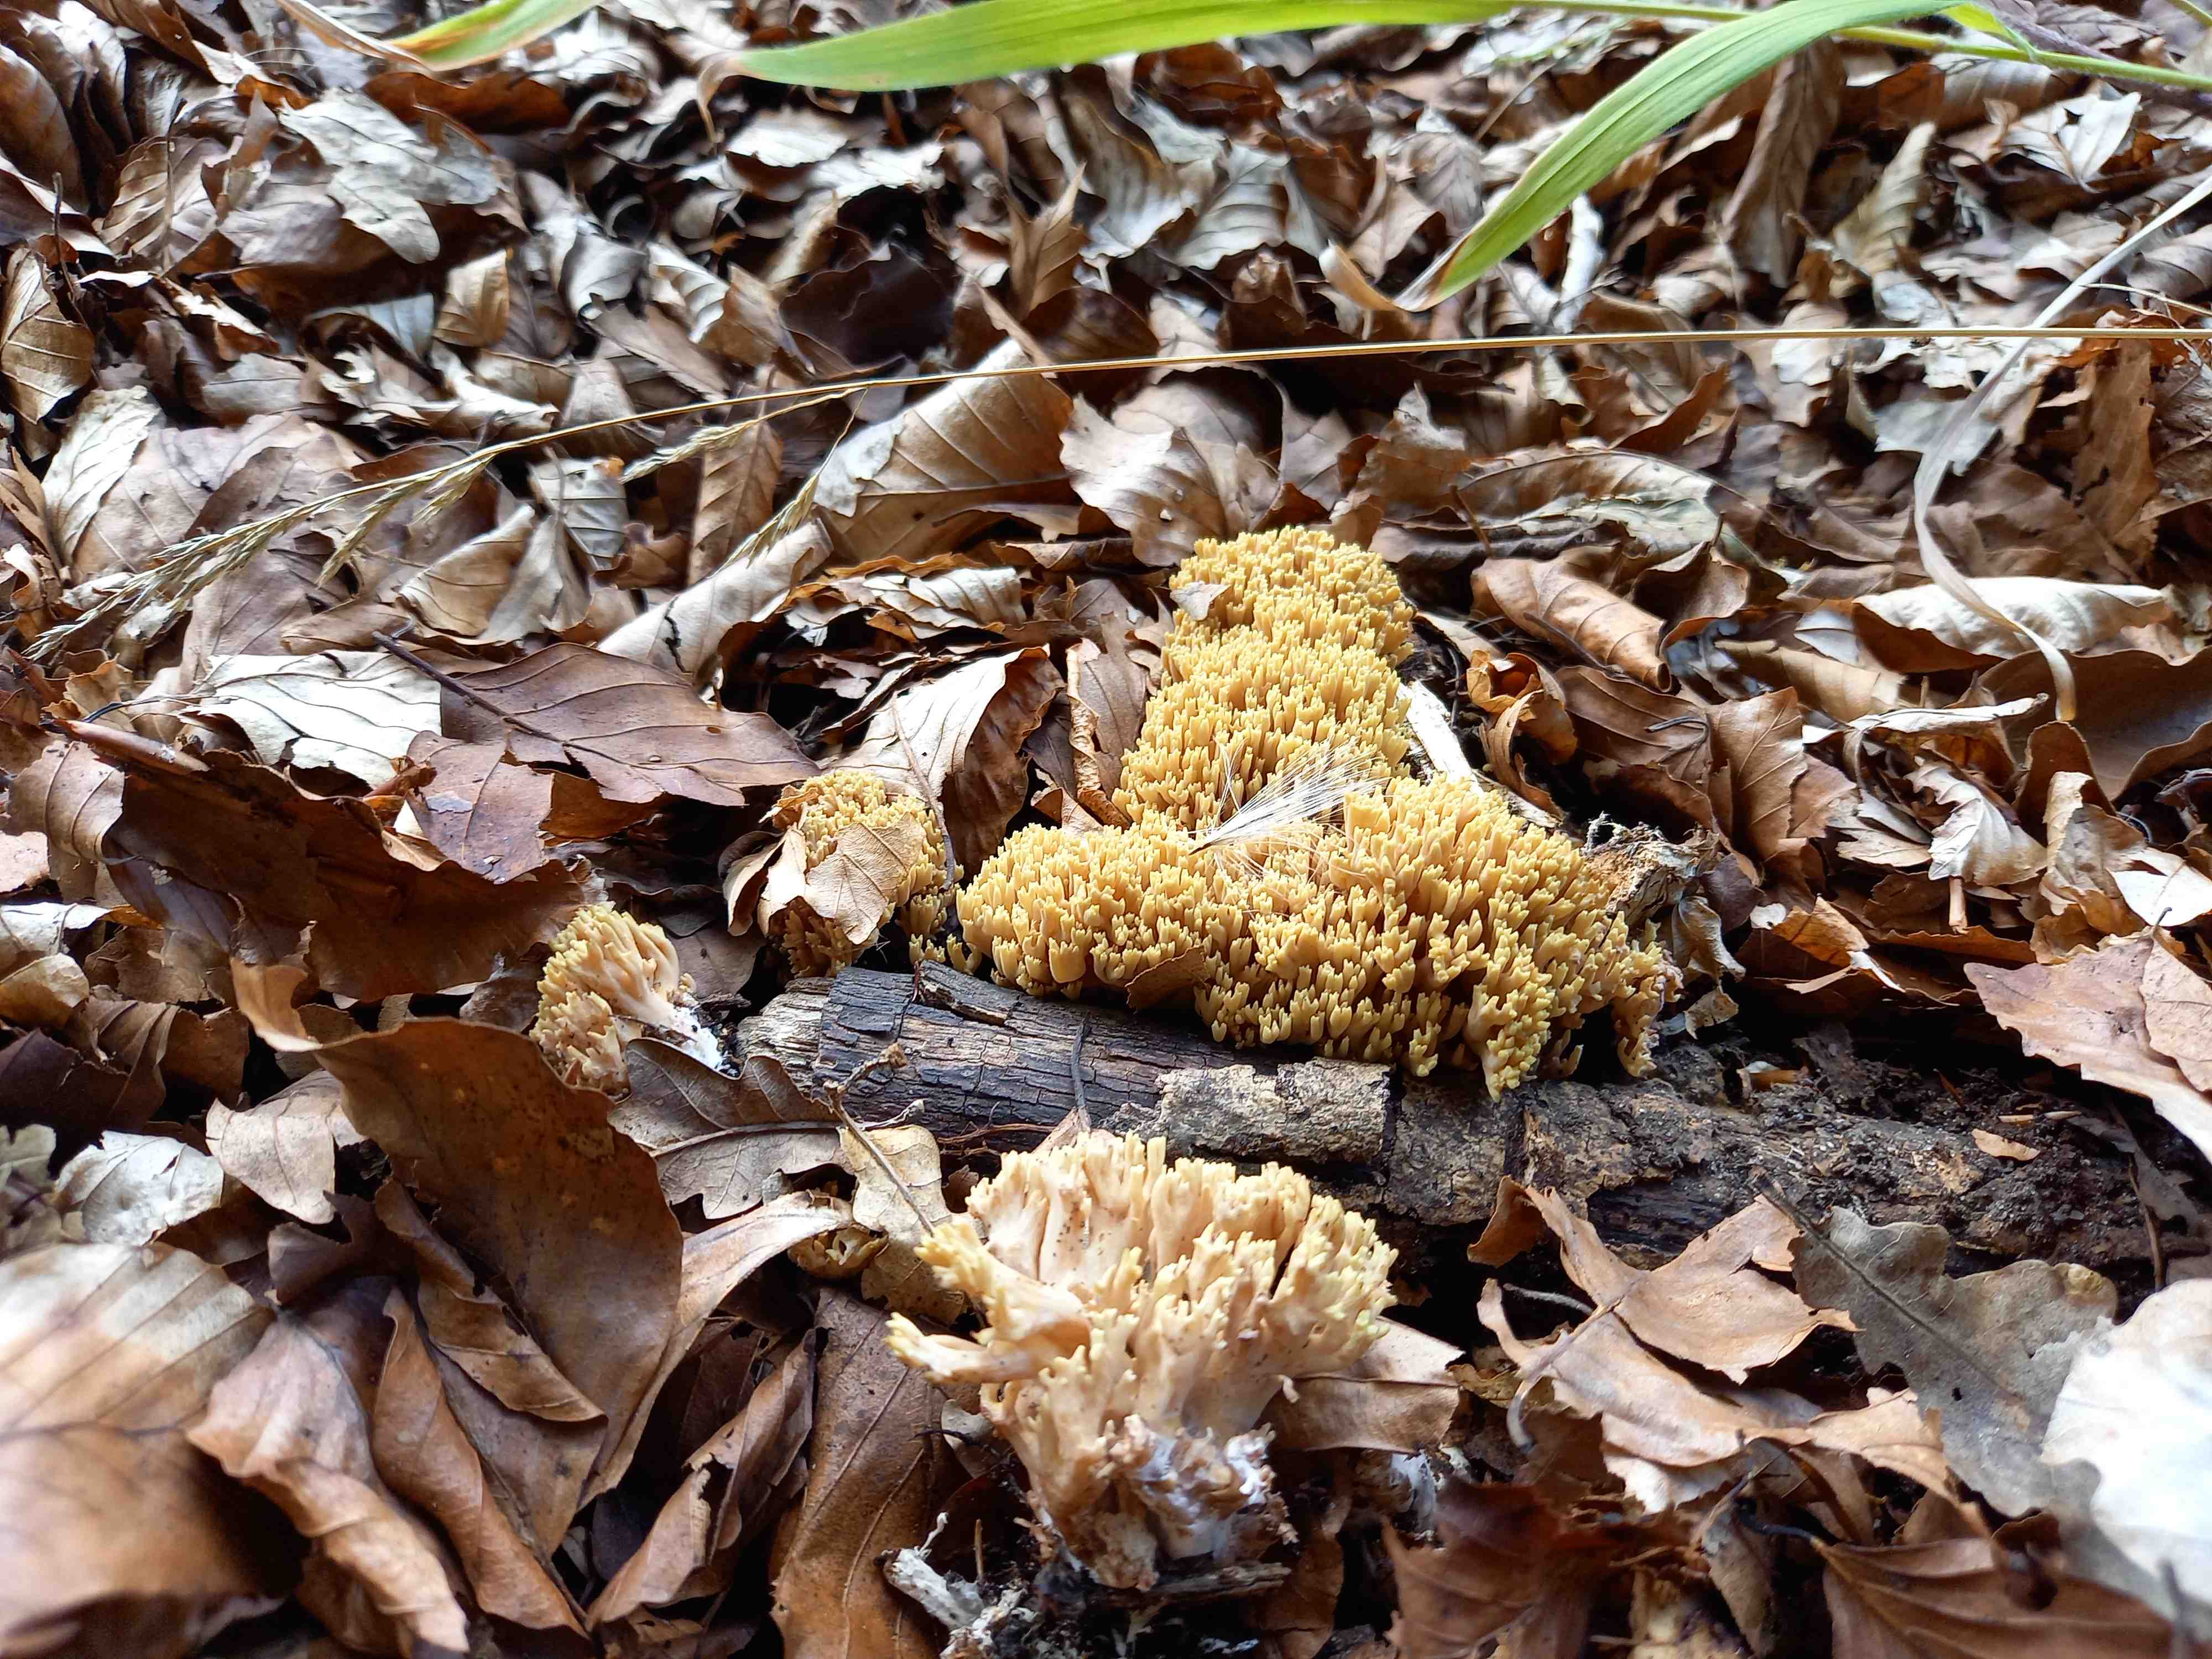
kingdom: Fungi
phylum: Basidiomycota
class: Agaricomycetes
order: Gomphales
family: Gomphaceae
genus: Ramaria
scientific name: Ramaria stricta
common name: rank koralsvamp
